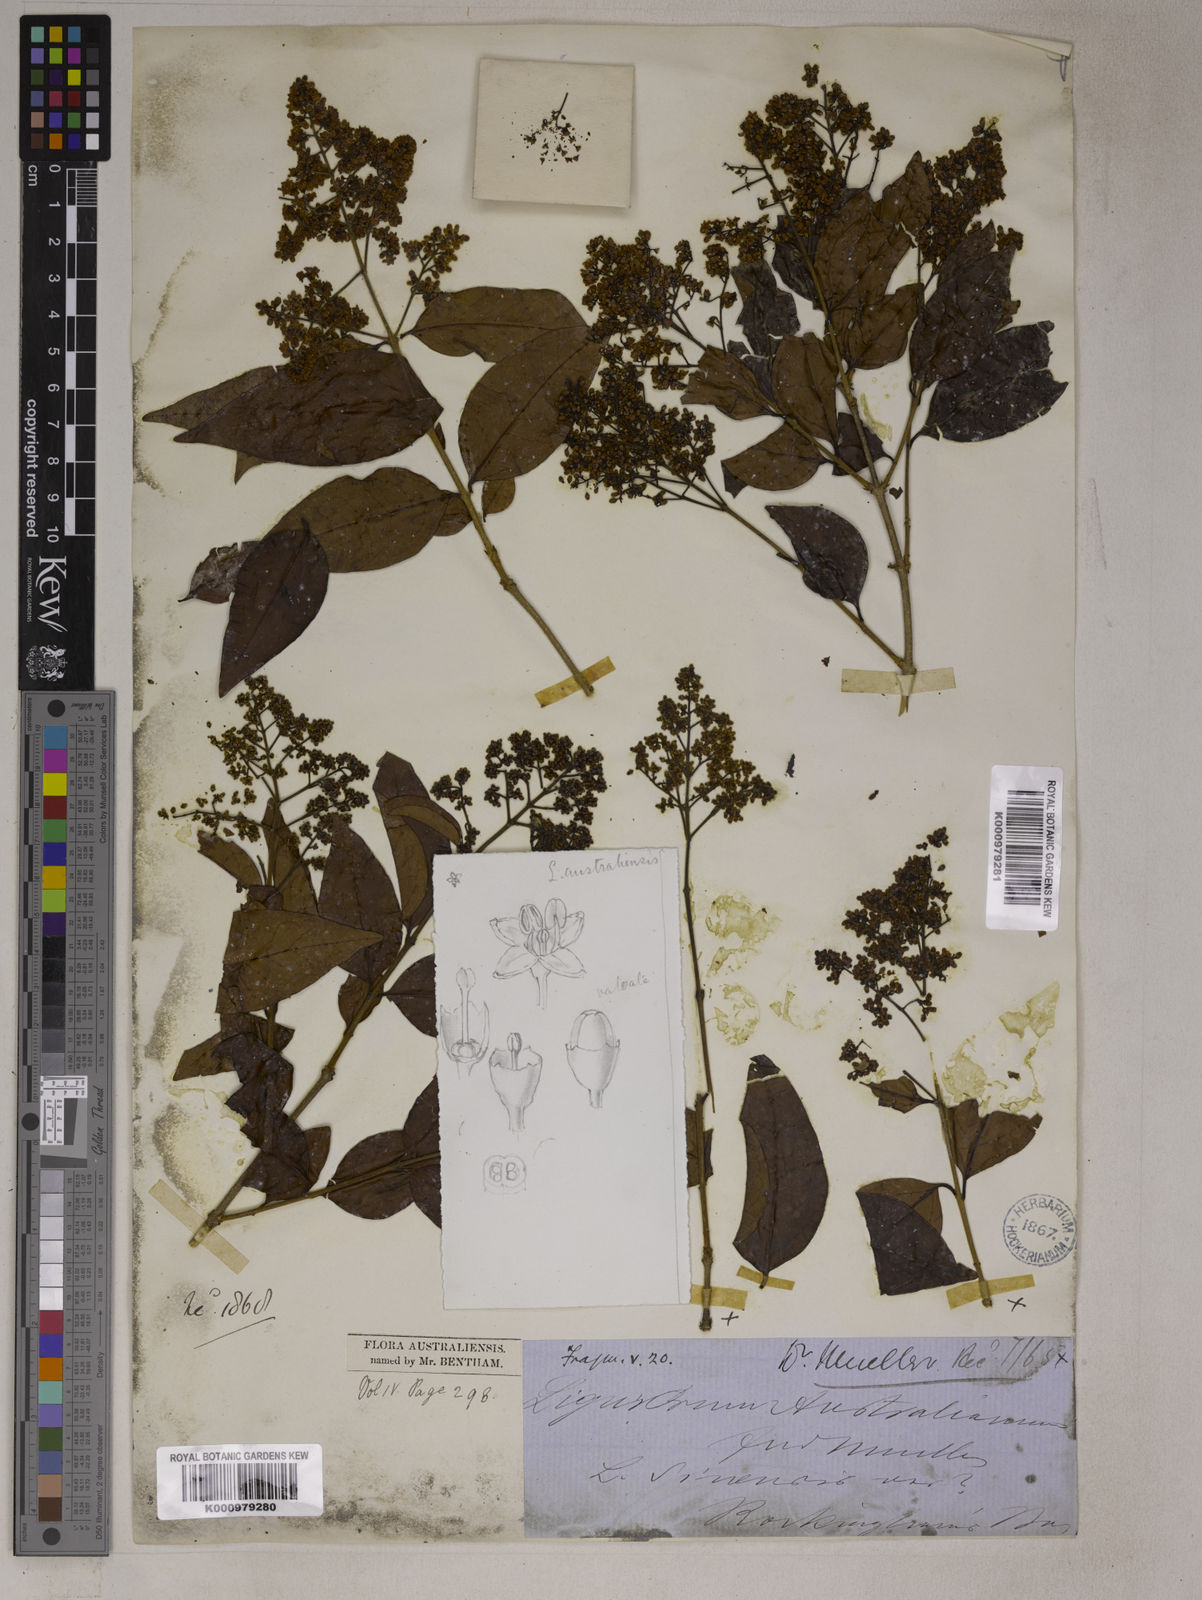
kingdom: Plantae
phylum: Tracheophyta
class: Magnoliopsida
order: Lamiales
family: Oleaceae
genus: Ligustrum
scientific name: Ligustrum australianum
